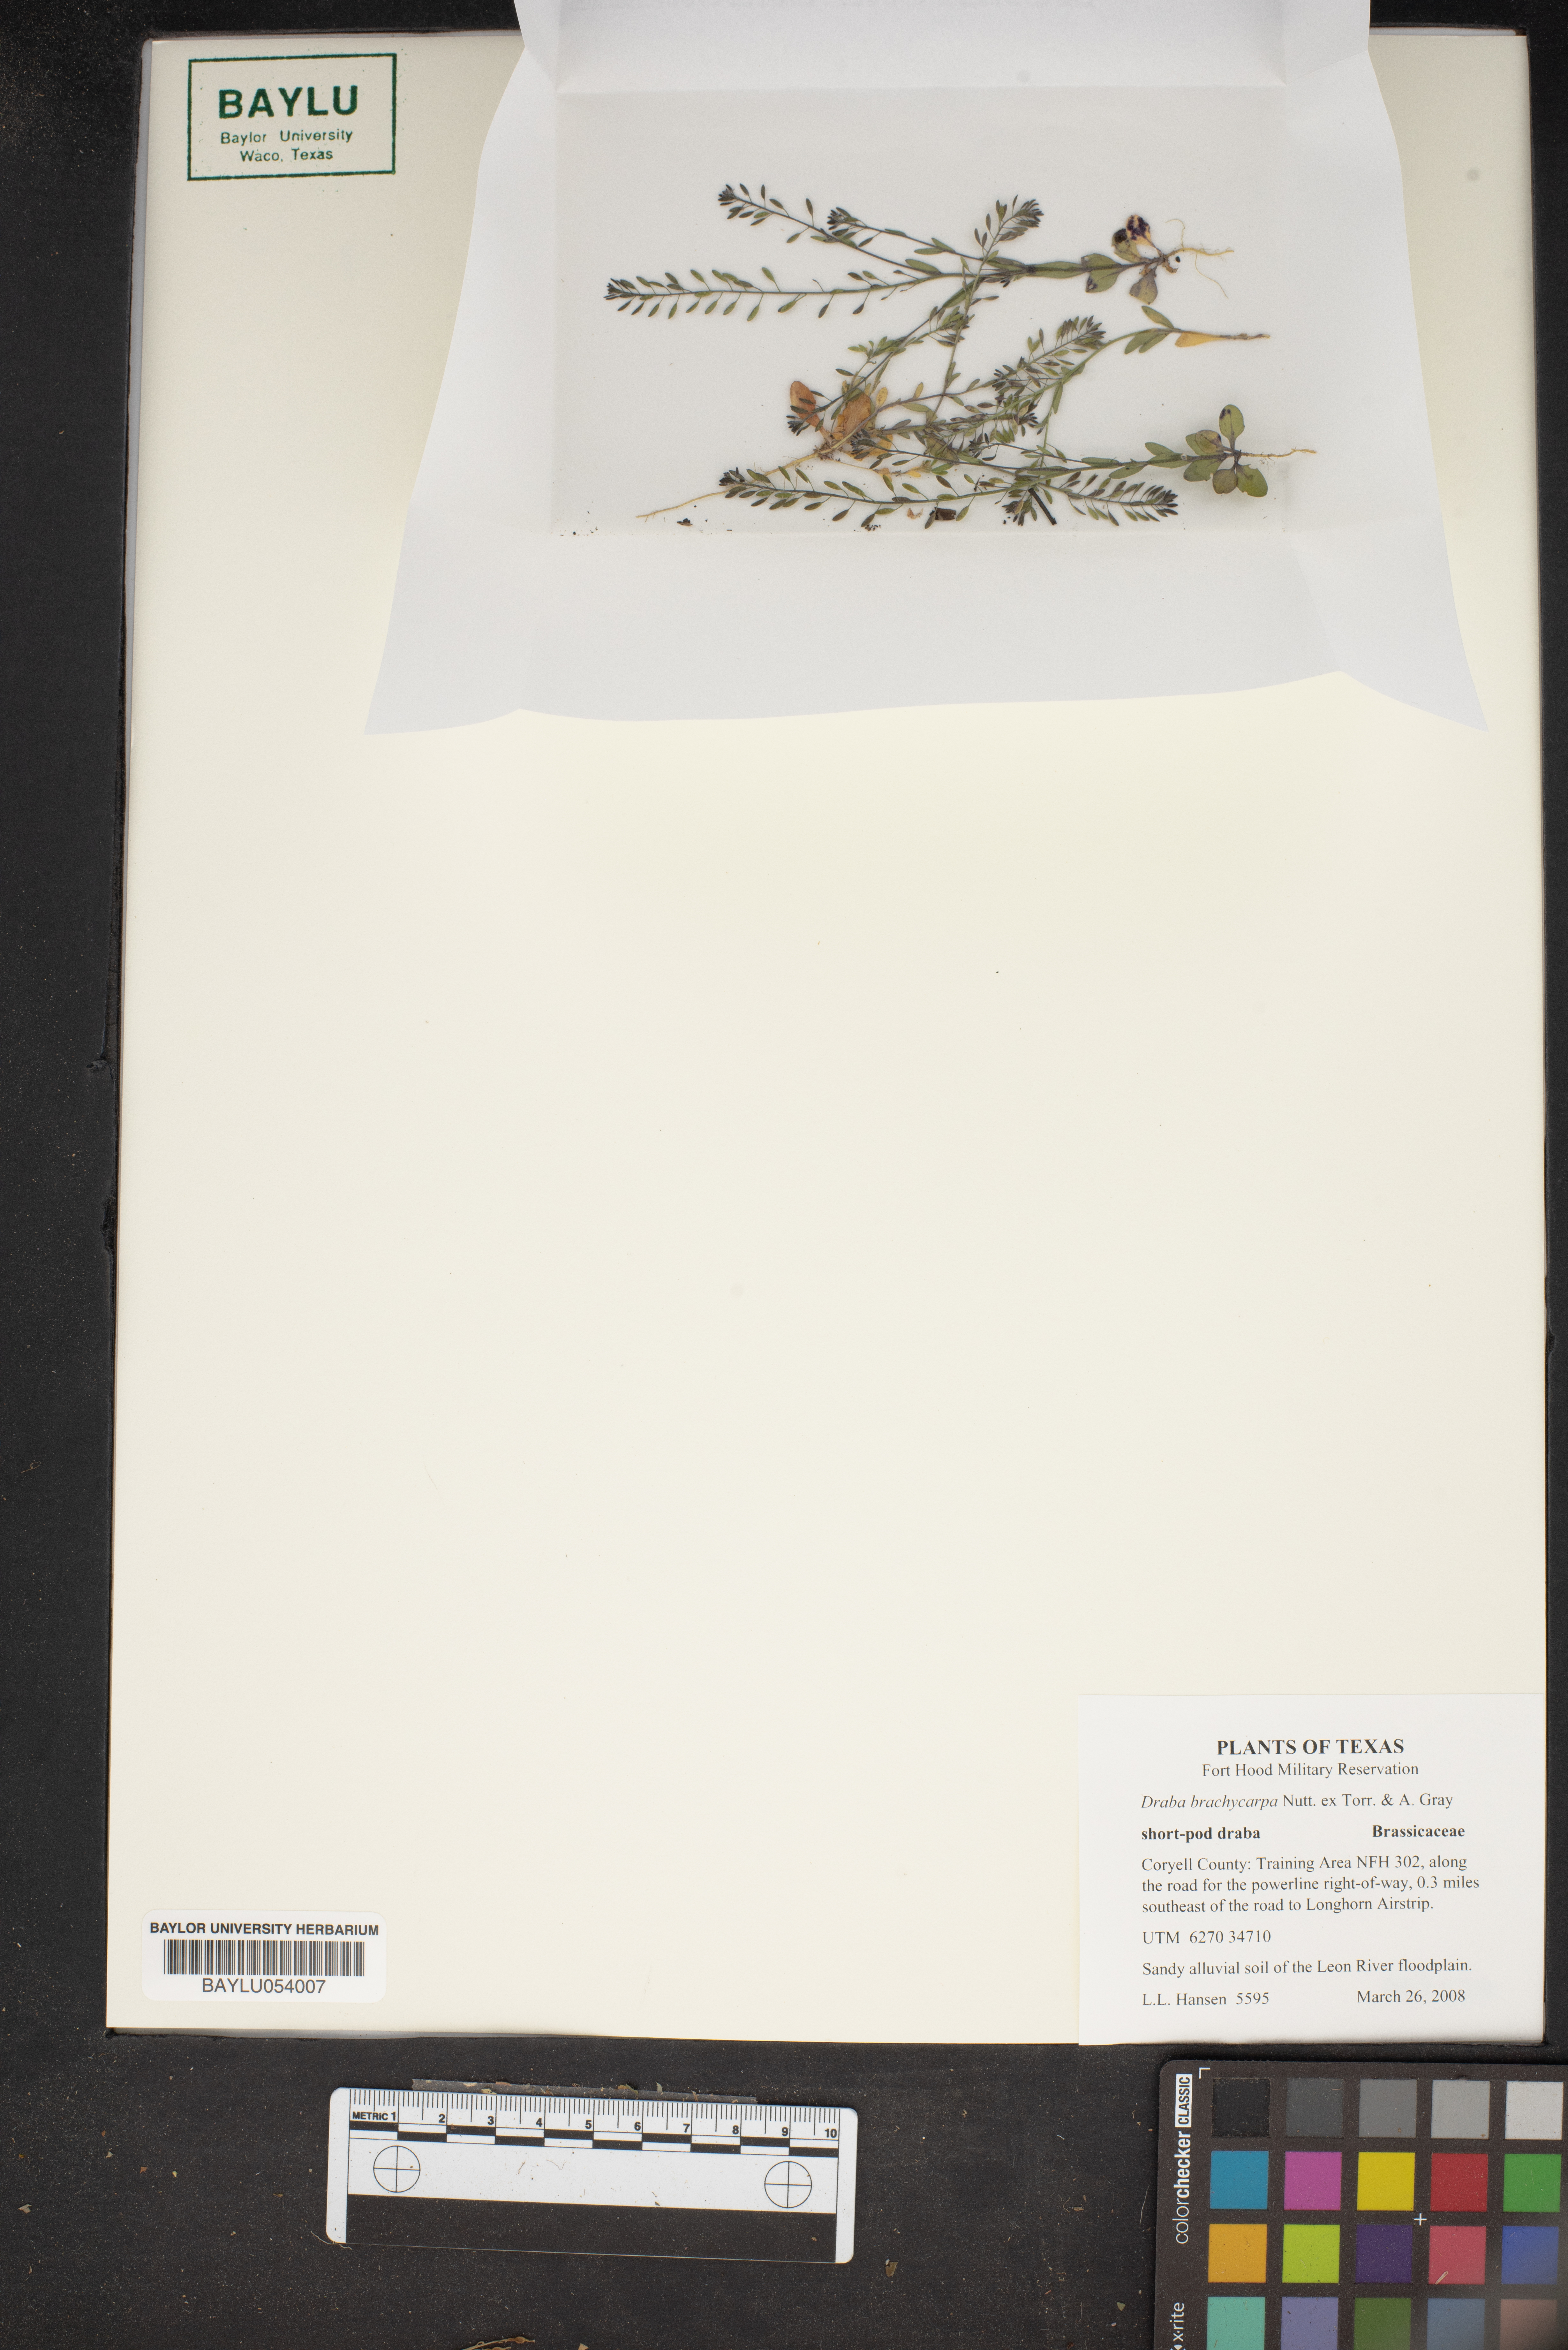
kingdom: Plantae
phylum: Tracheophyta
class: Magnoliopsida
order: Brassicales
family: Brassicaceae
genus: Abdra
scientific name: Abdra brachycarpa
